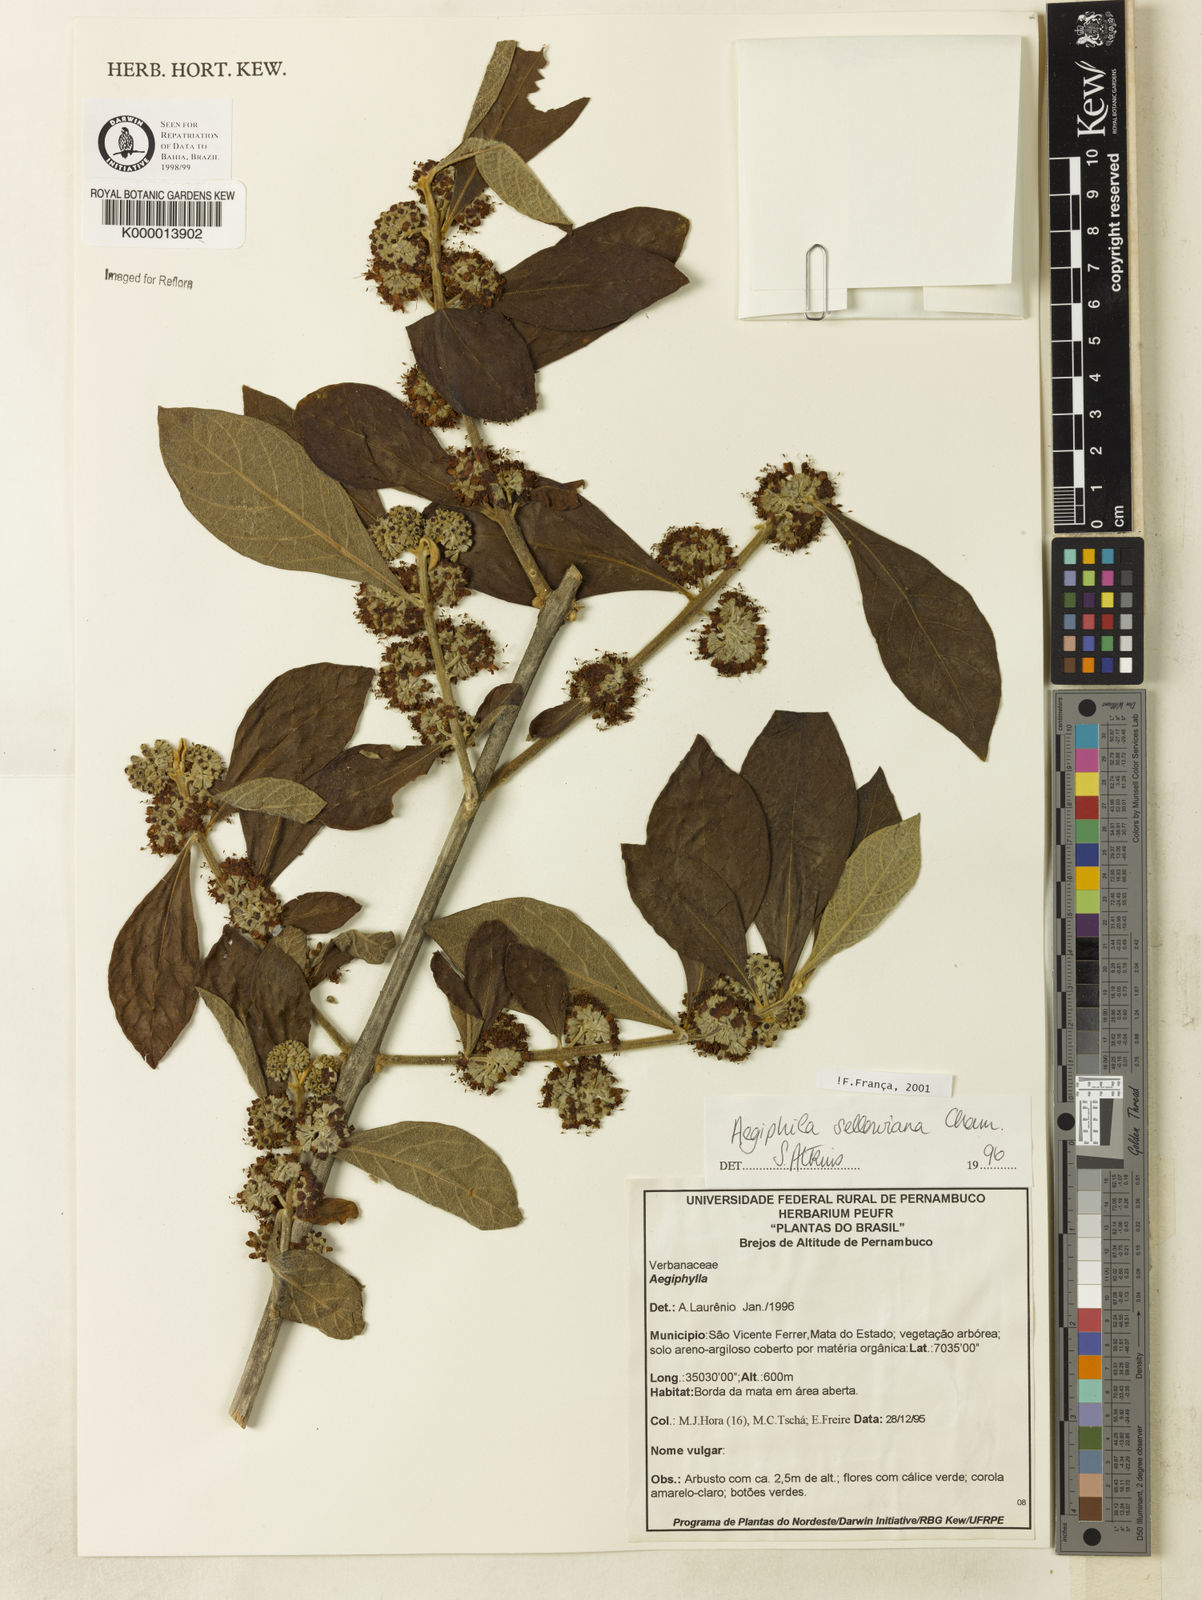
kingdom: Plantae
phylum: Tracheophyta
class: Magnoliopsida
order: Lamiales
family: Lamiaceae
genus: Aegiphila
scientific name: Aegiphila verticillata
